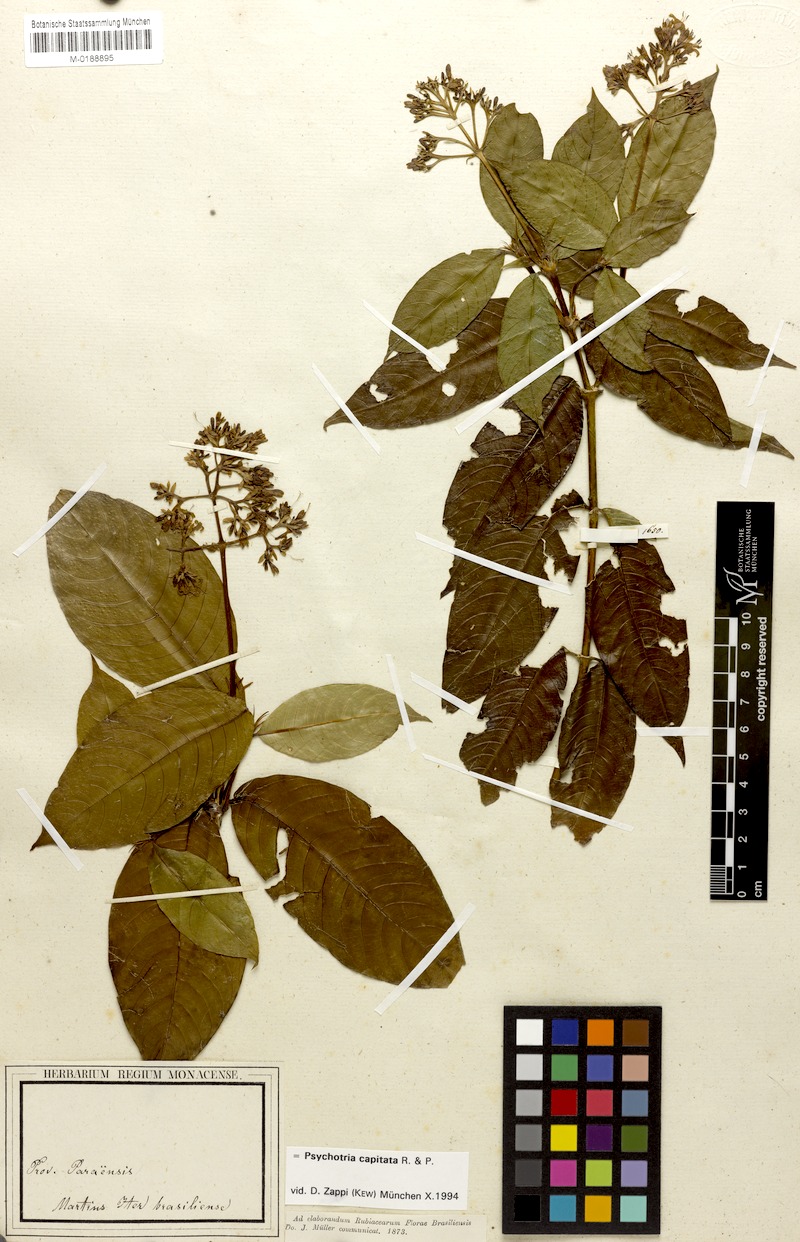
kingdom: Plantae
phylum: Tracheophyta
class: Magnoliopsida
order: Gentianales
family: Rubiaceae
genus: Palicourea
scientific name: Palicourea violacea
